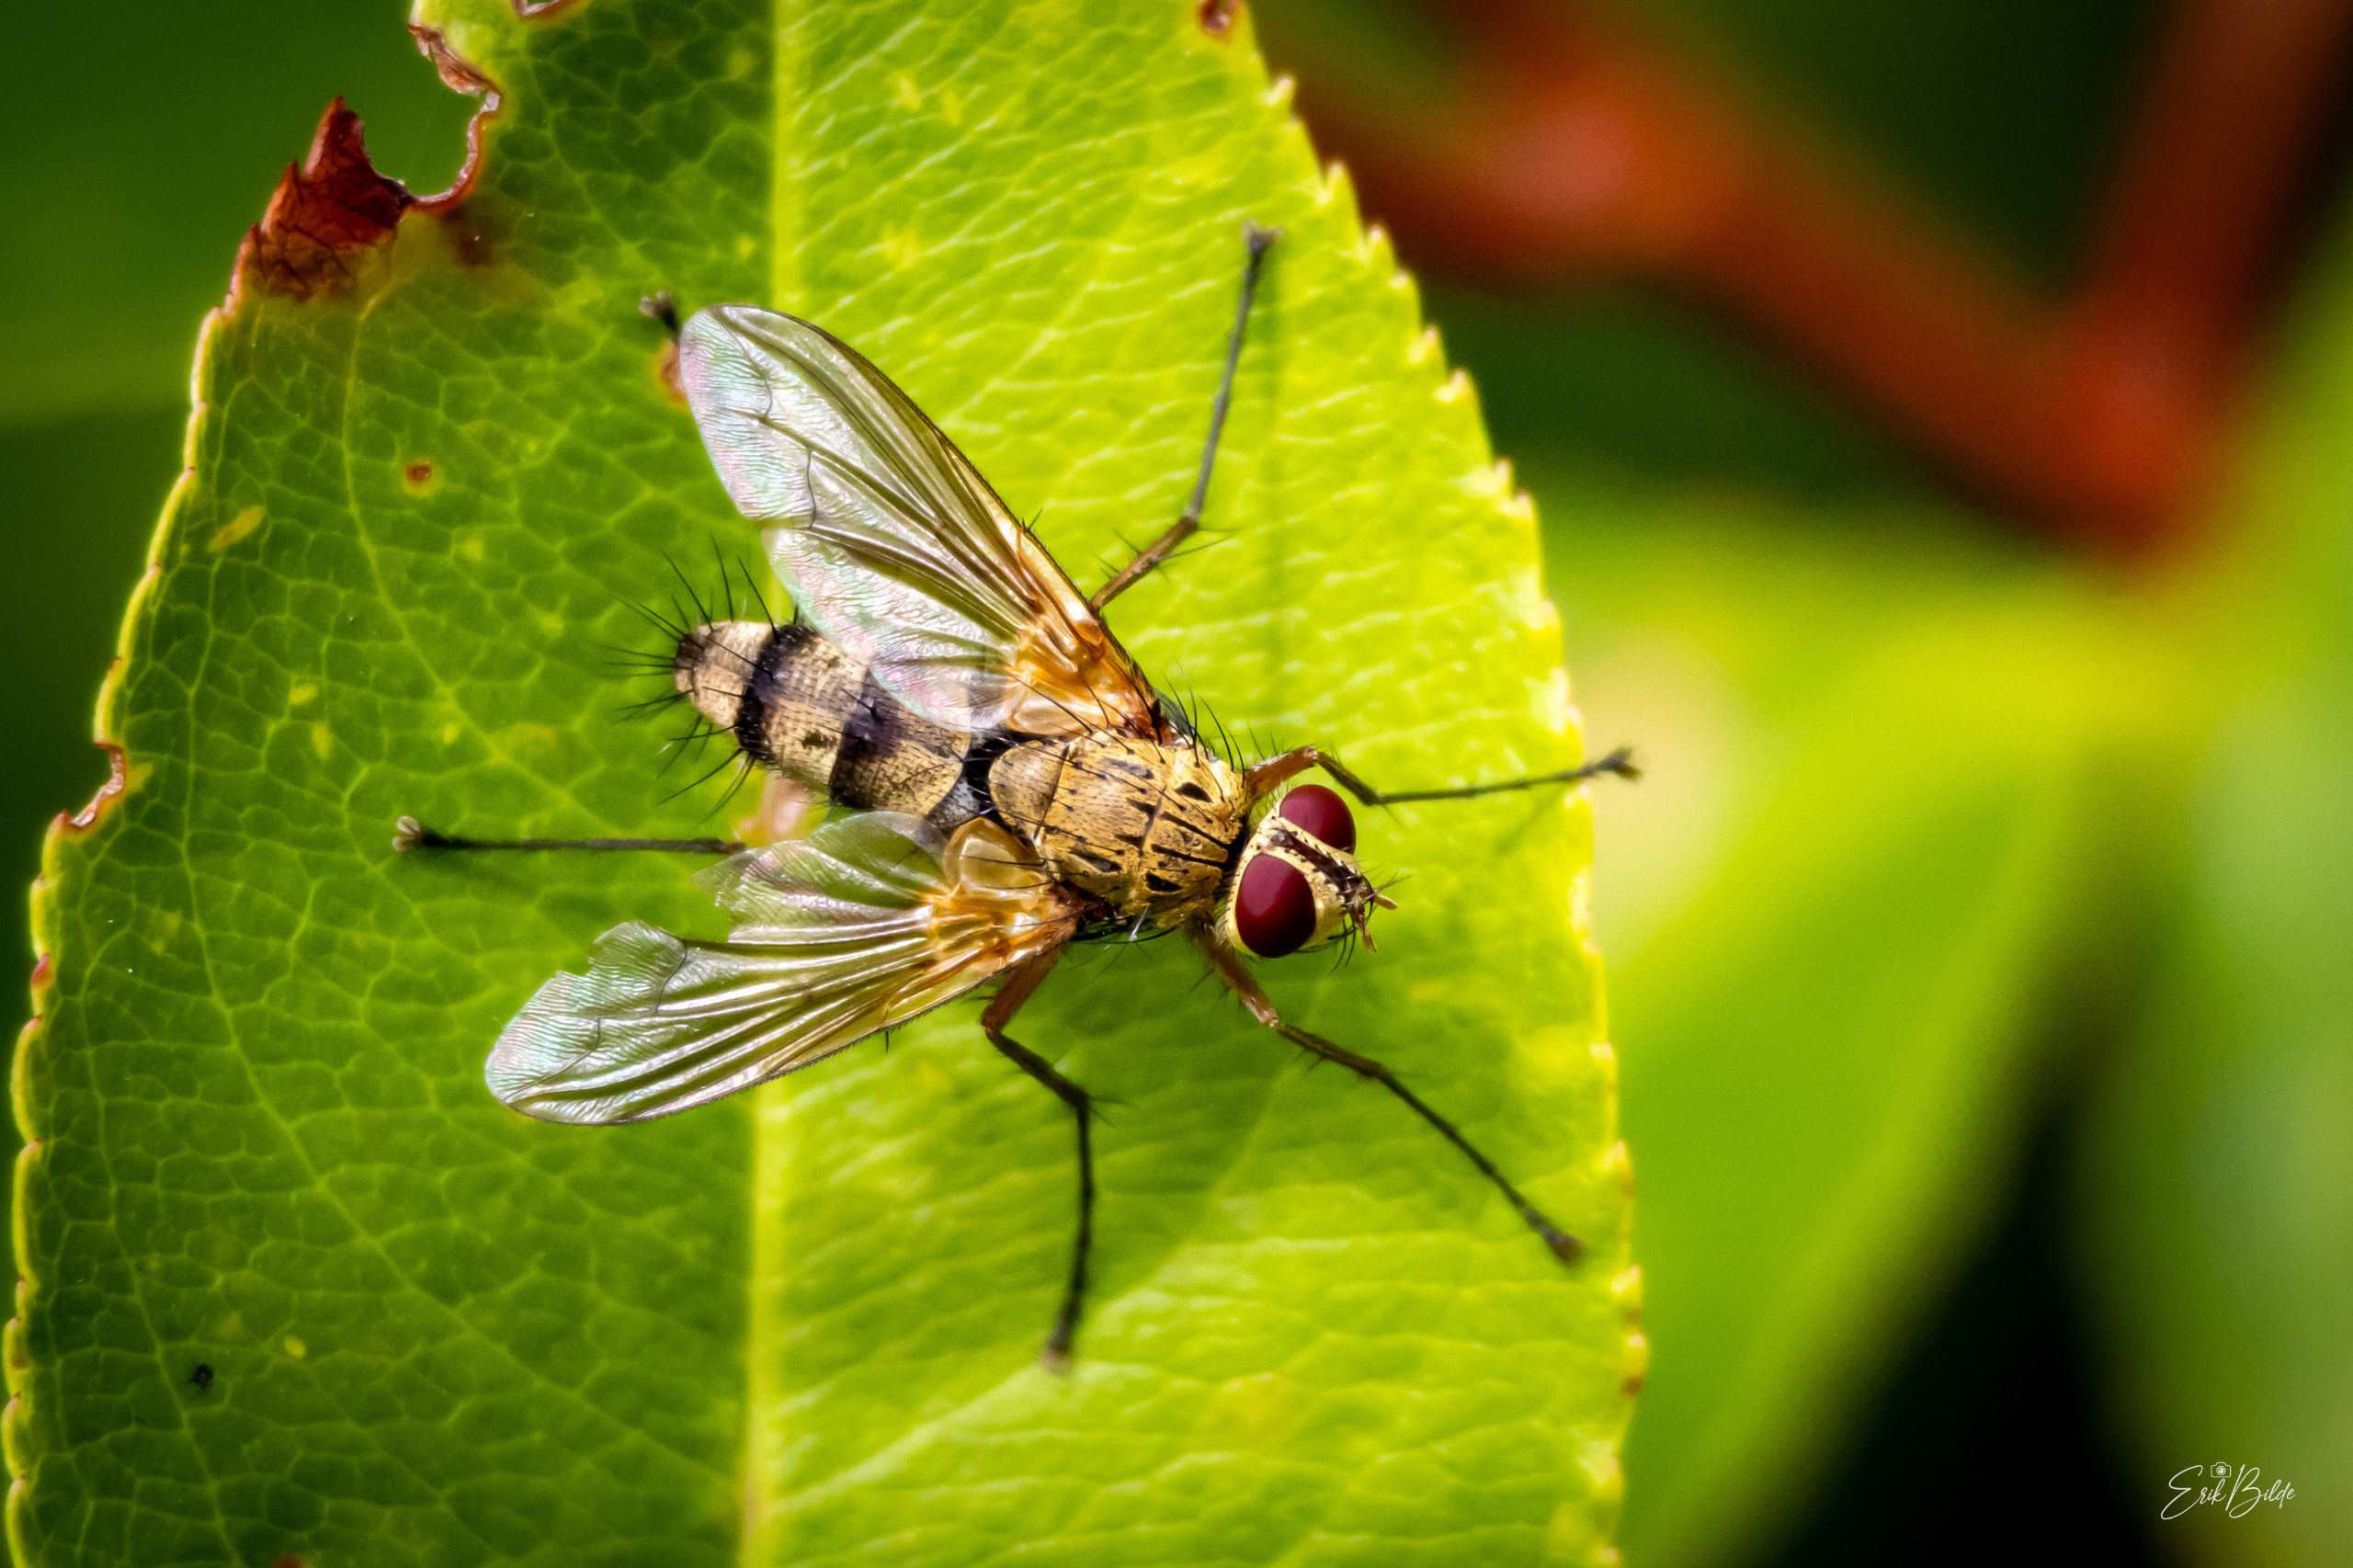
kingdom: Animalia
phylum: Arthropoda
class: Insecta
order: Diptera
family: Tachinidae
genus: Dexiosoma
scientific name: Dexiosoma caninum
